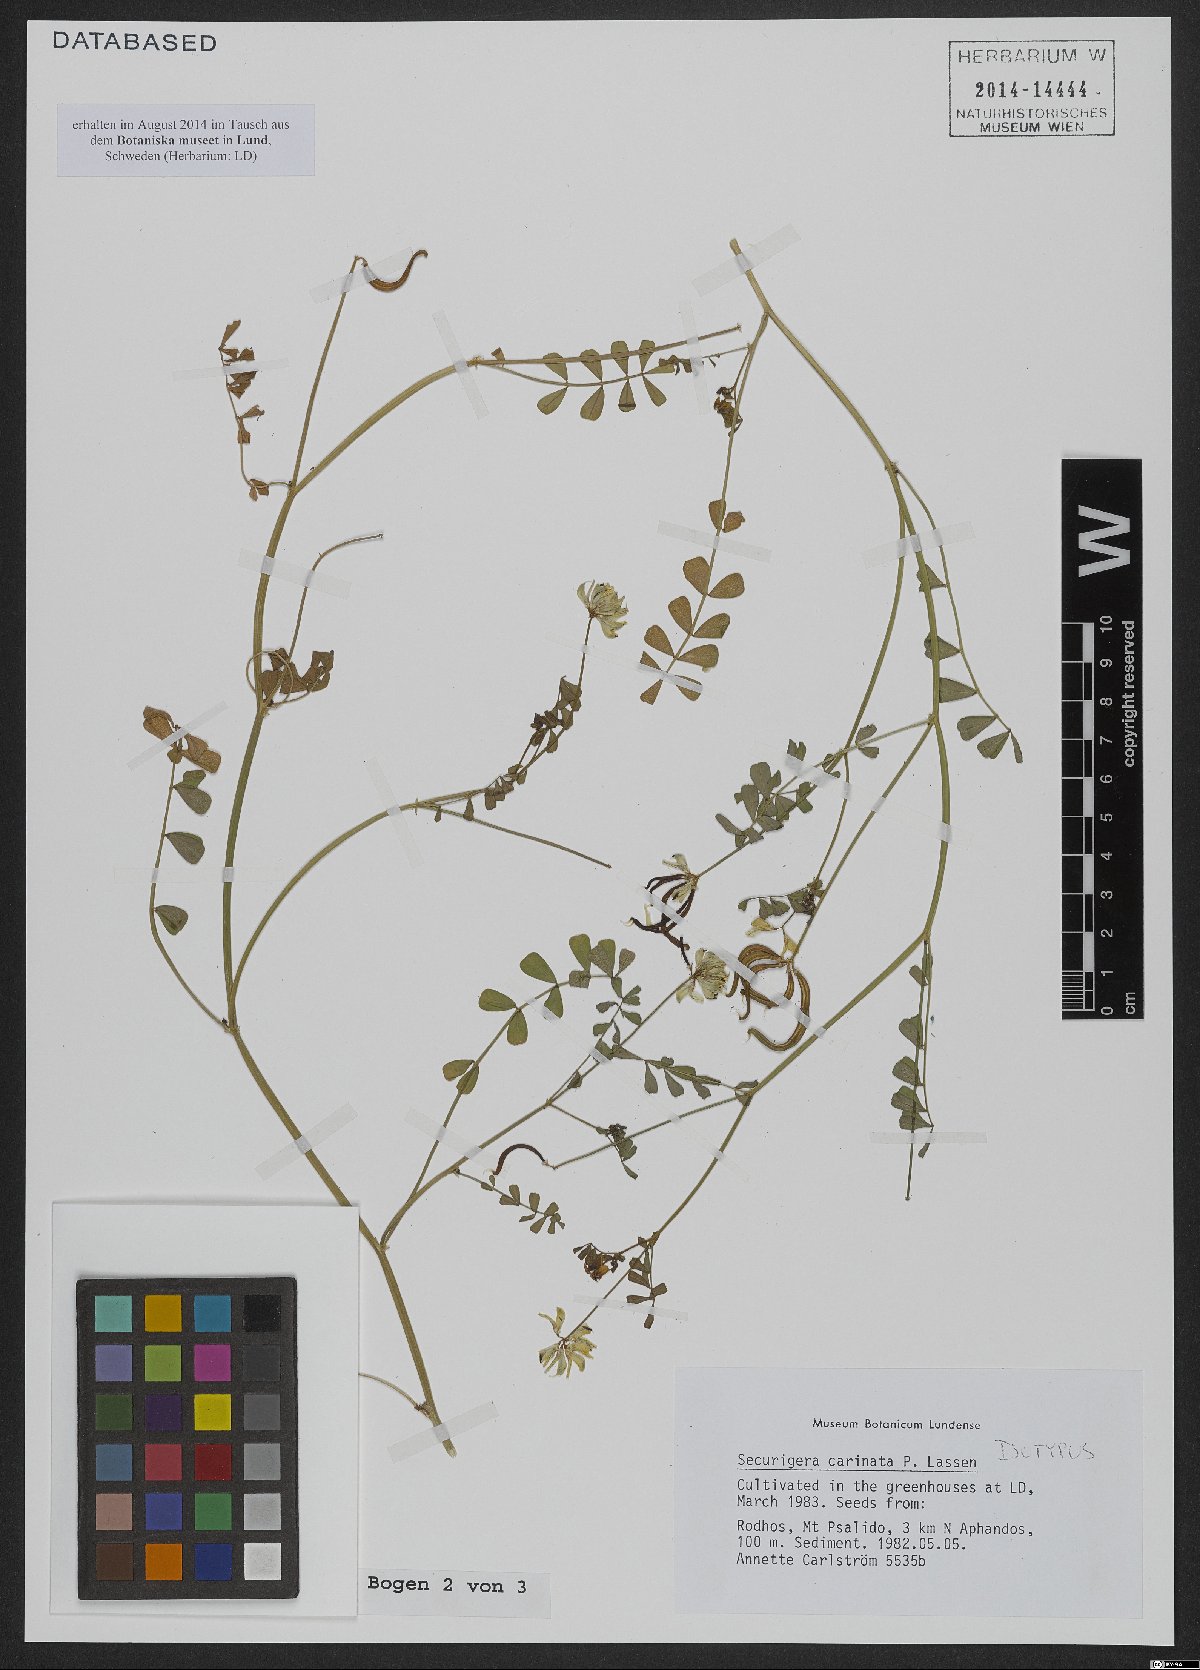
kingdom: Plantae
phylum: Tracheophyta
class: Magnoliopsida
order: Fabales
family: Fabaceae
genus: Coronilla
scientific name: Coronilla carinata
